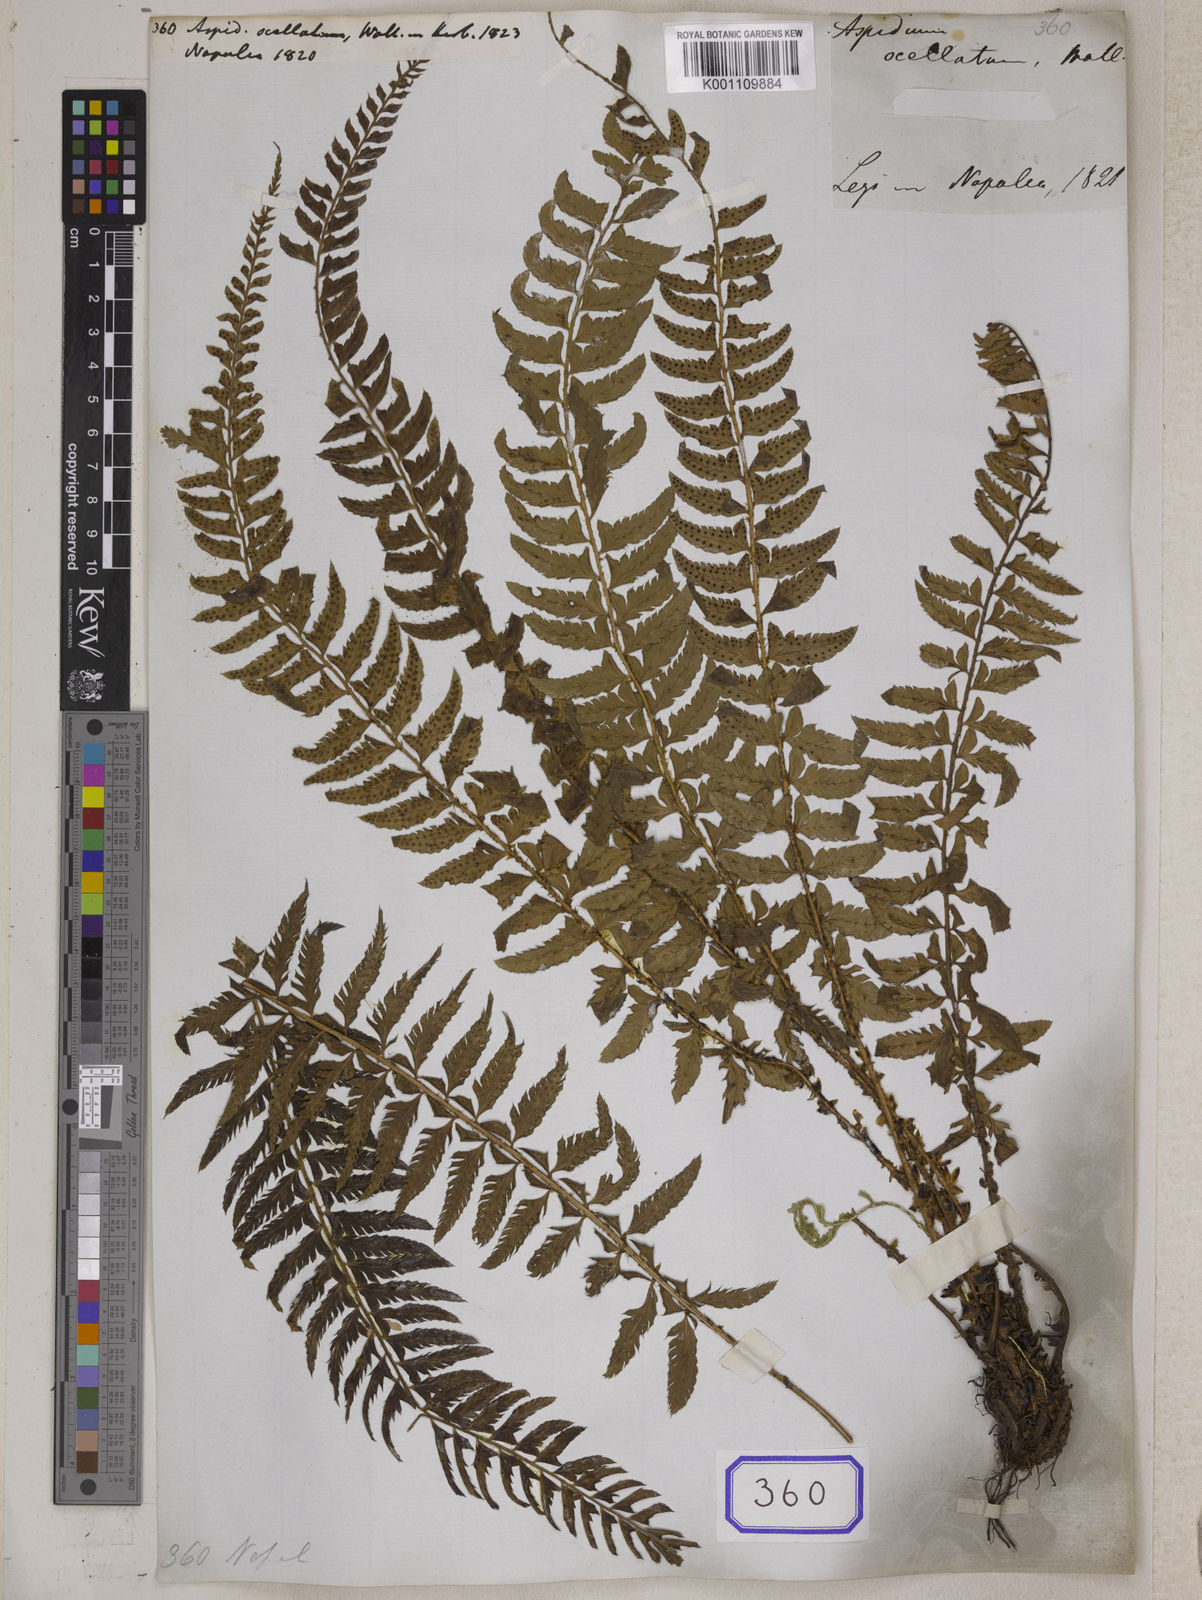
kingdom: Plantae
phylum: Tracheophyta
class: Polypodiopsida
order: Polypodiales
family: Dryopteridaceae
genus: Polystichum
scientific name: Polystichum lentum
